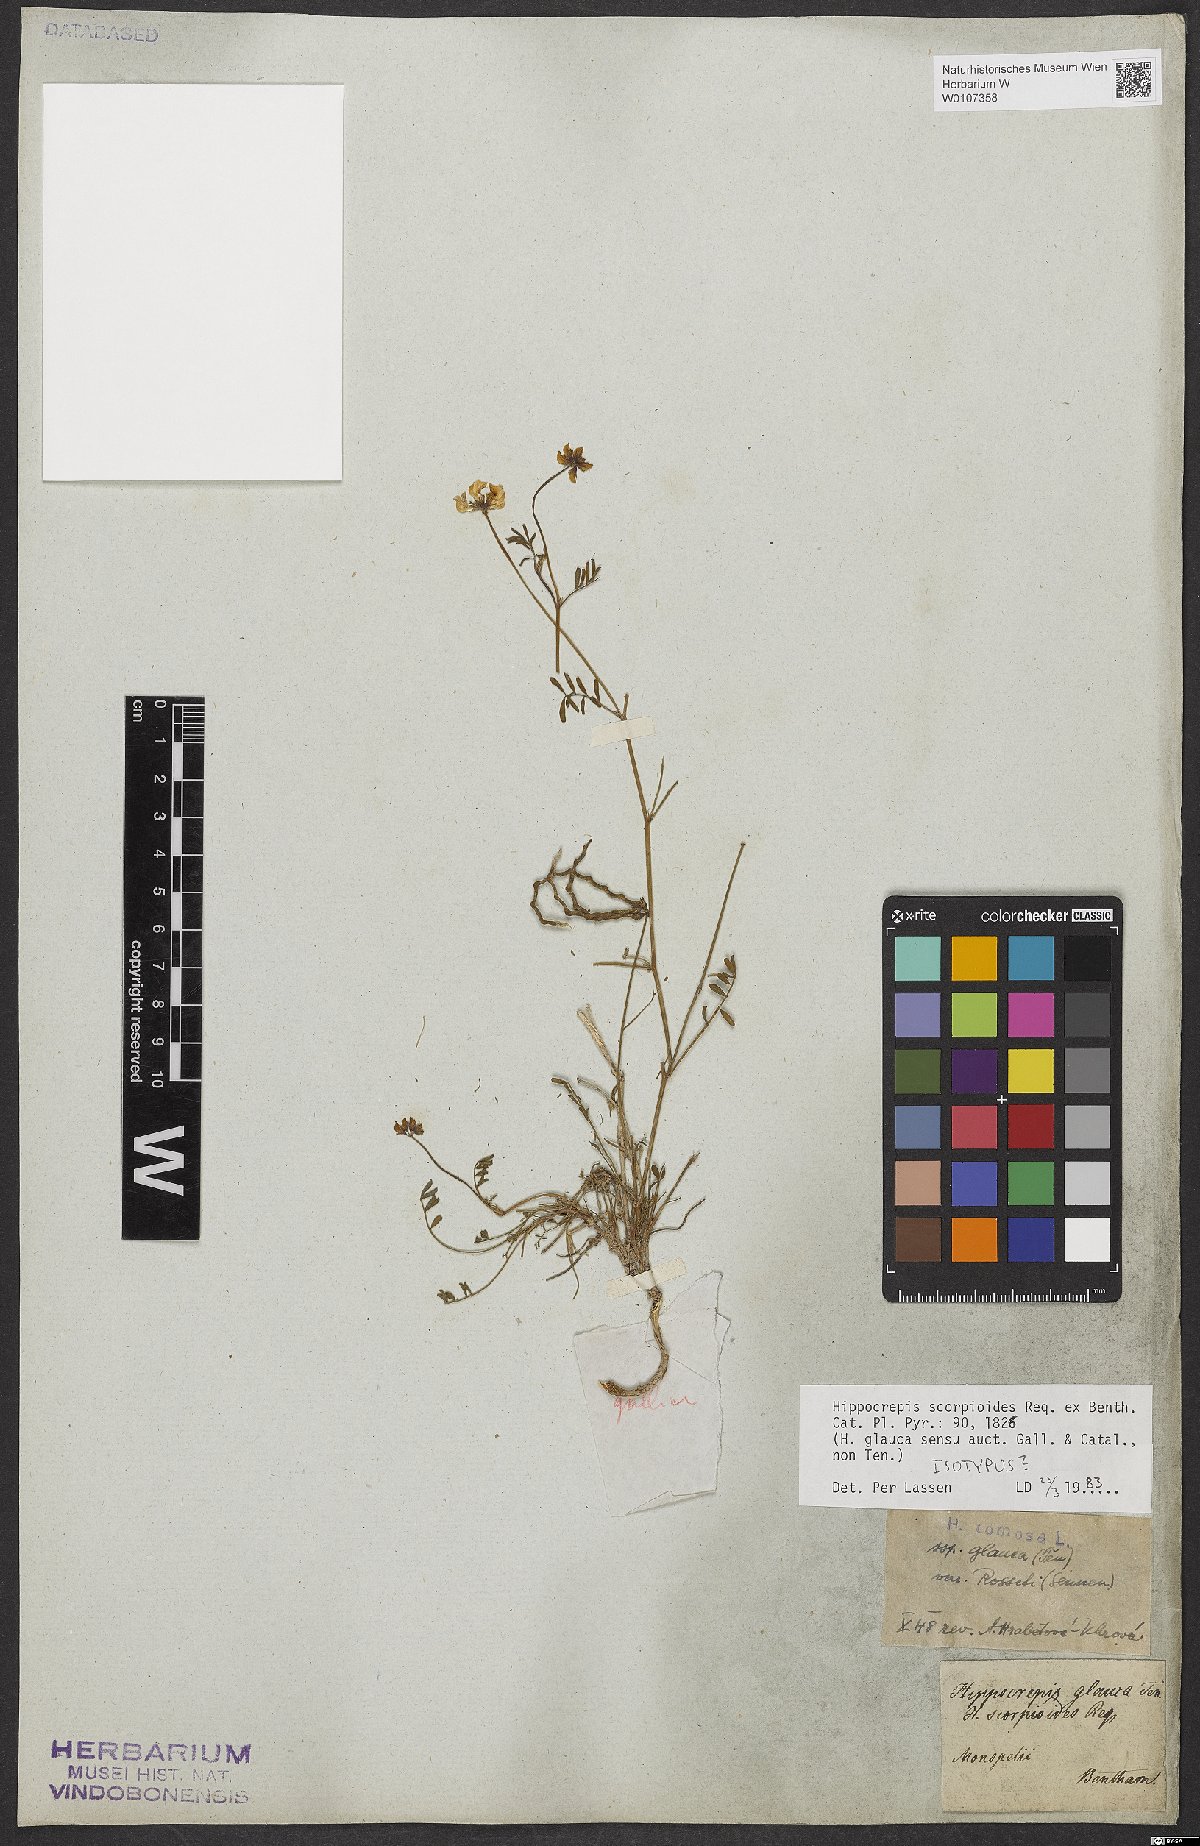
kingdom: Plantae
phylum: Tracheophyta
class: Magnoliopsida
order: Fabales
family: Fabaceae
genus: Hippocrepis
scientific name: Hippocrepis scorpioides
